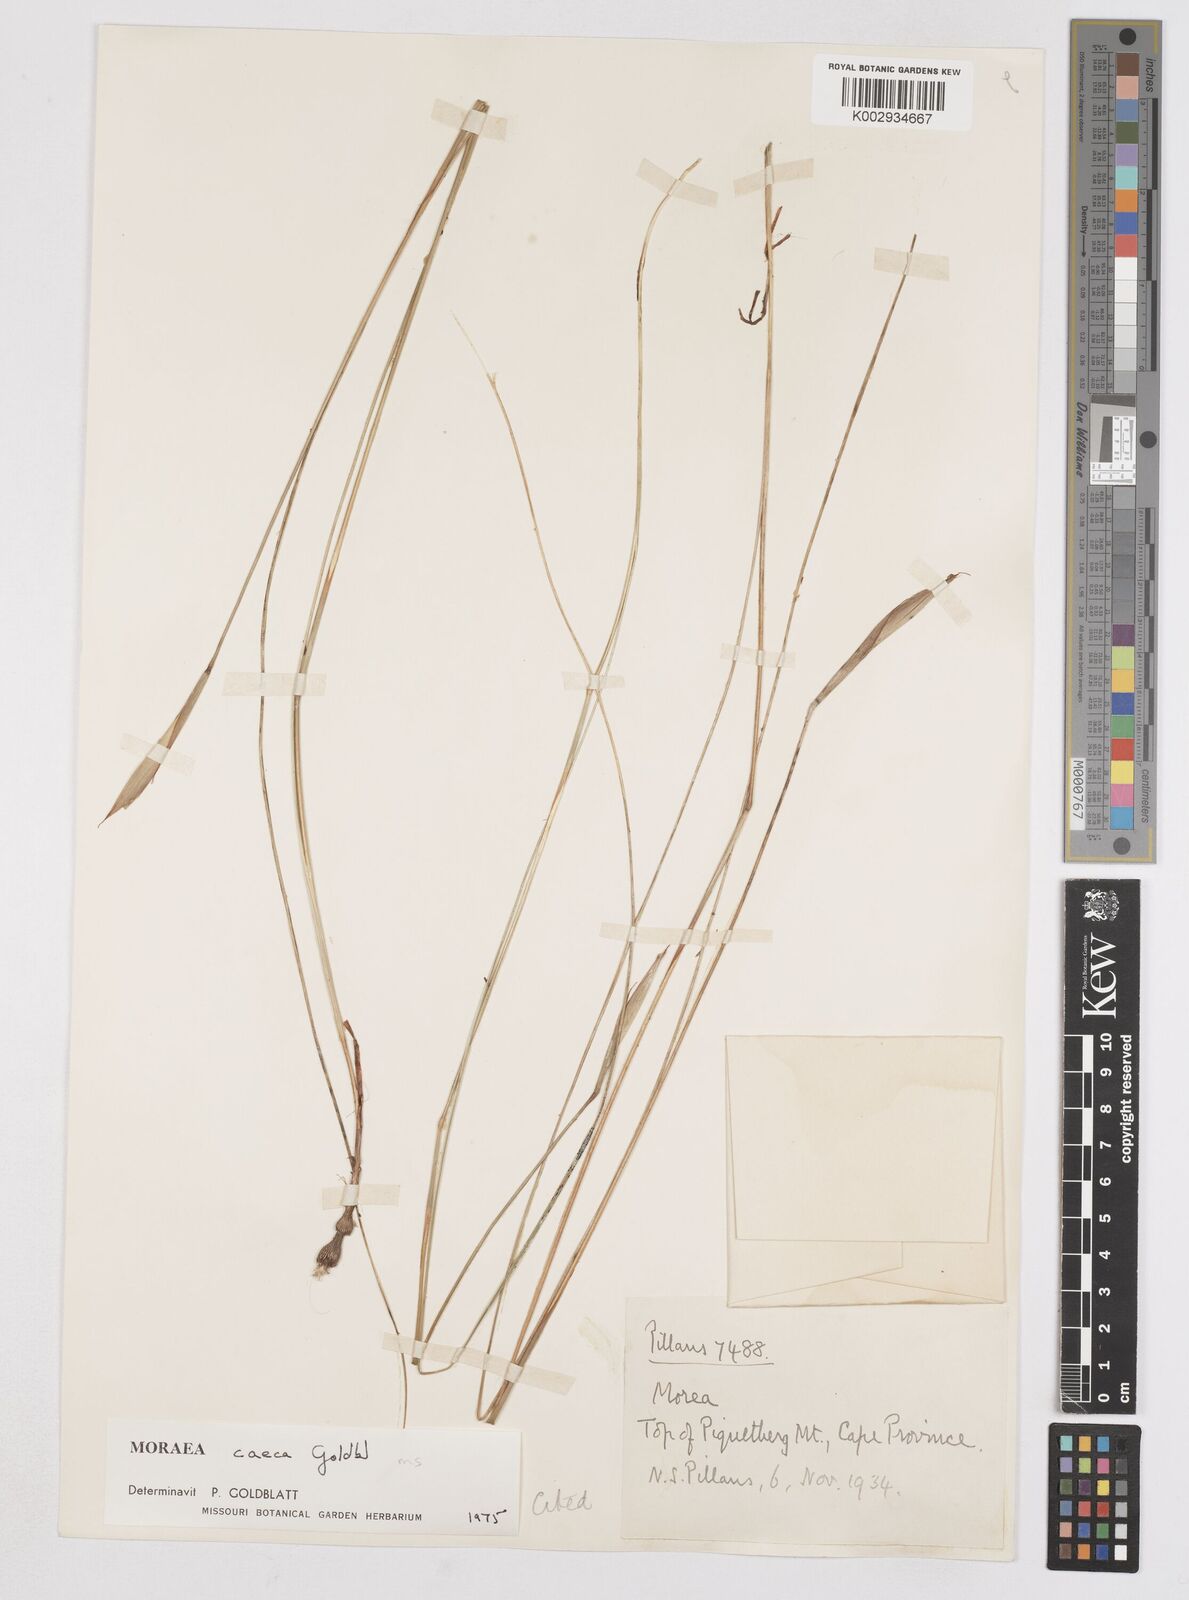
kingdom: Plantae
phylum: Tracheophyta
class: Liliopsida
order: Asparagales
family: Iridaceae
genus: Moraea
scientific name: Moraea caeca
